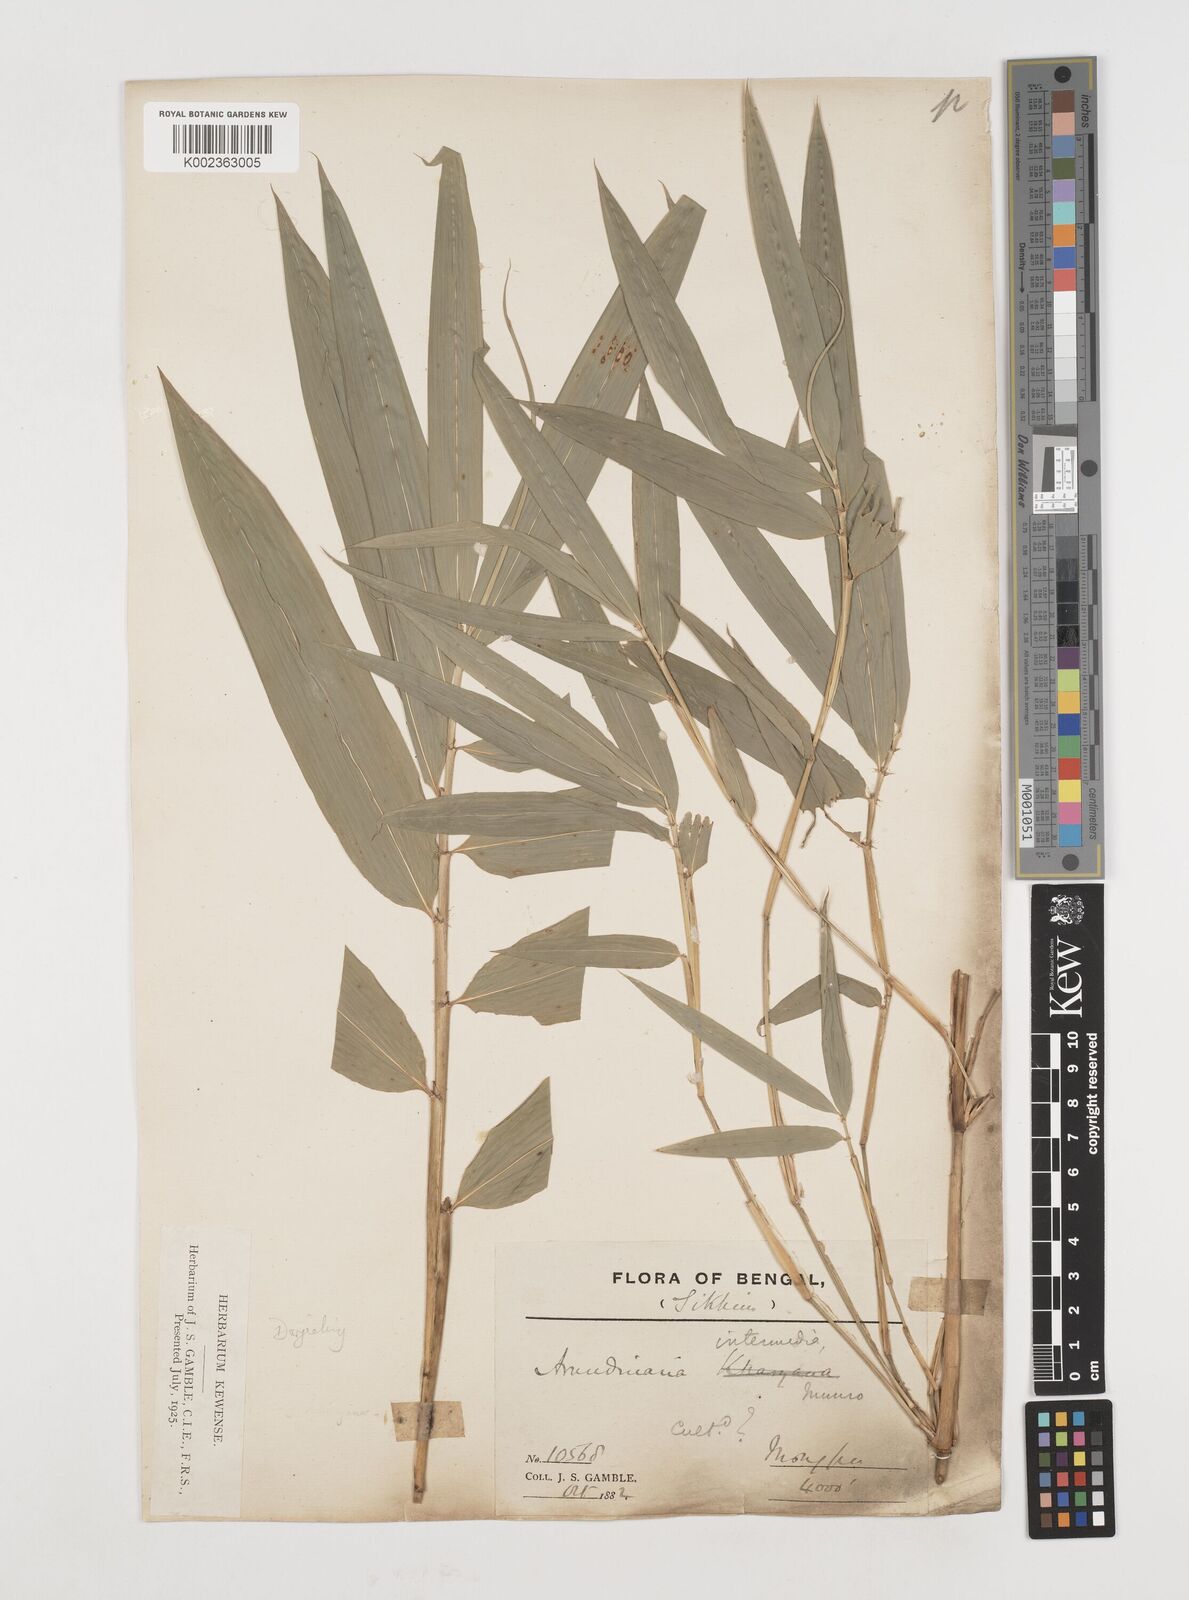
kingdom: Plantae
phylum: Tracheophyta
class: Liliopsida
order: Poales
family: Poaceae
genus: Drepanostachyum
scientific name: Drepanostachyum
